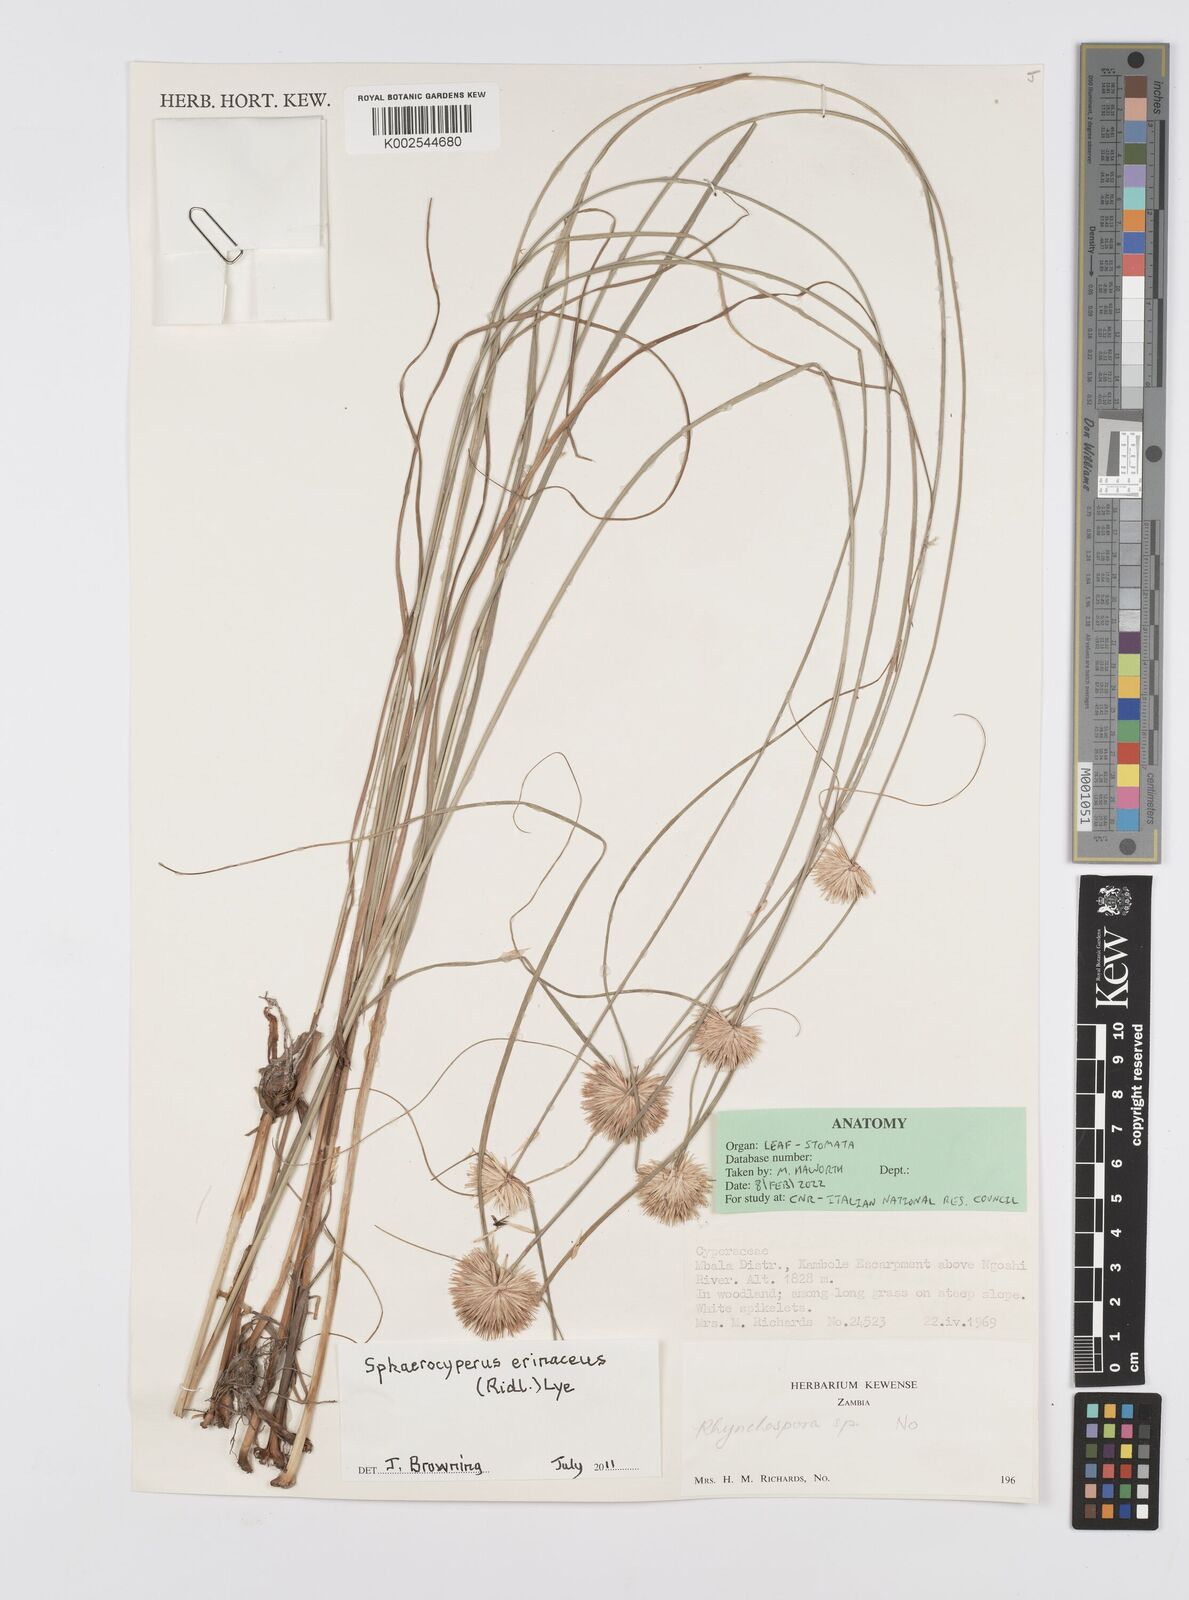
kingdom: Plantae
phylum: Tracheophyta
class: Liliopsida
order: Poales
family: Cyperaceae
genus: Cyperus
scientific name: Cyperus erinaceus
